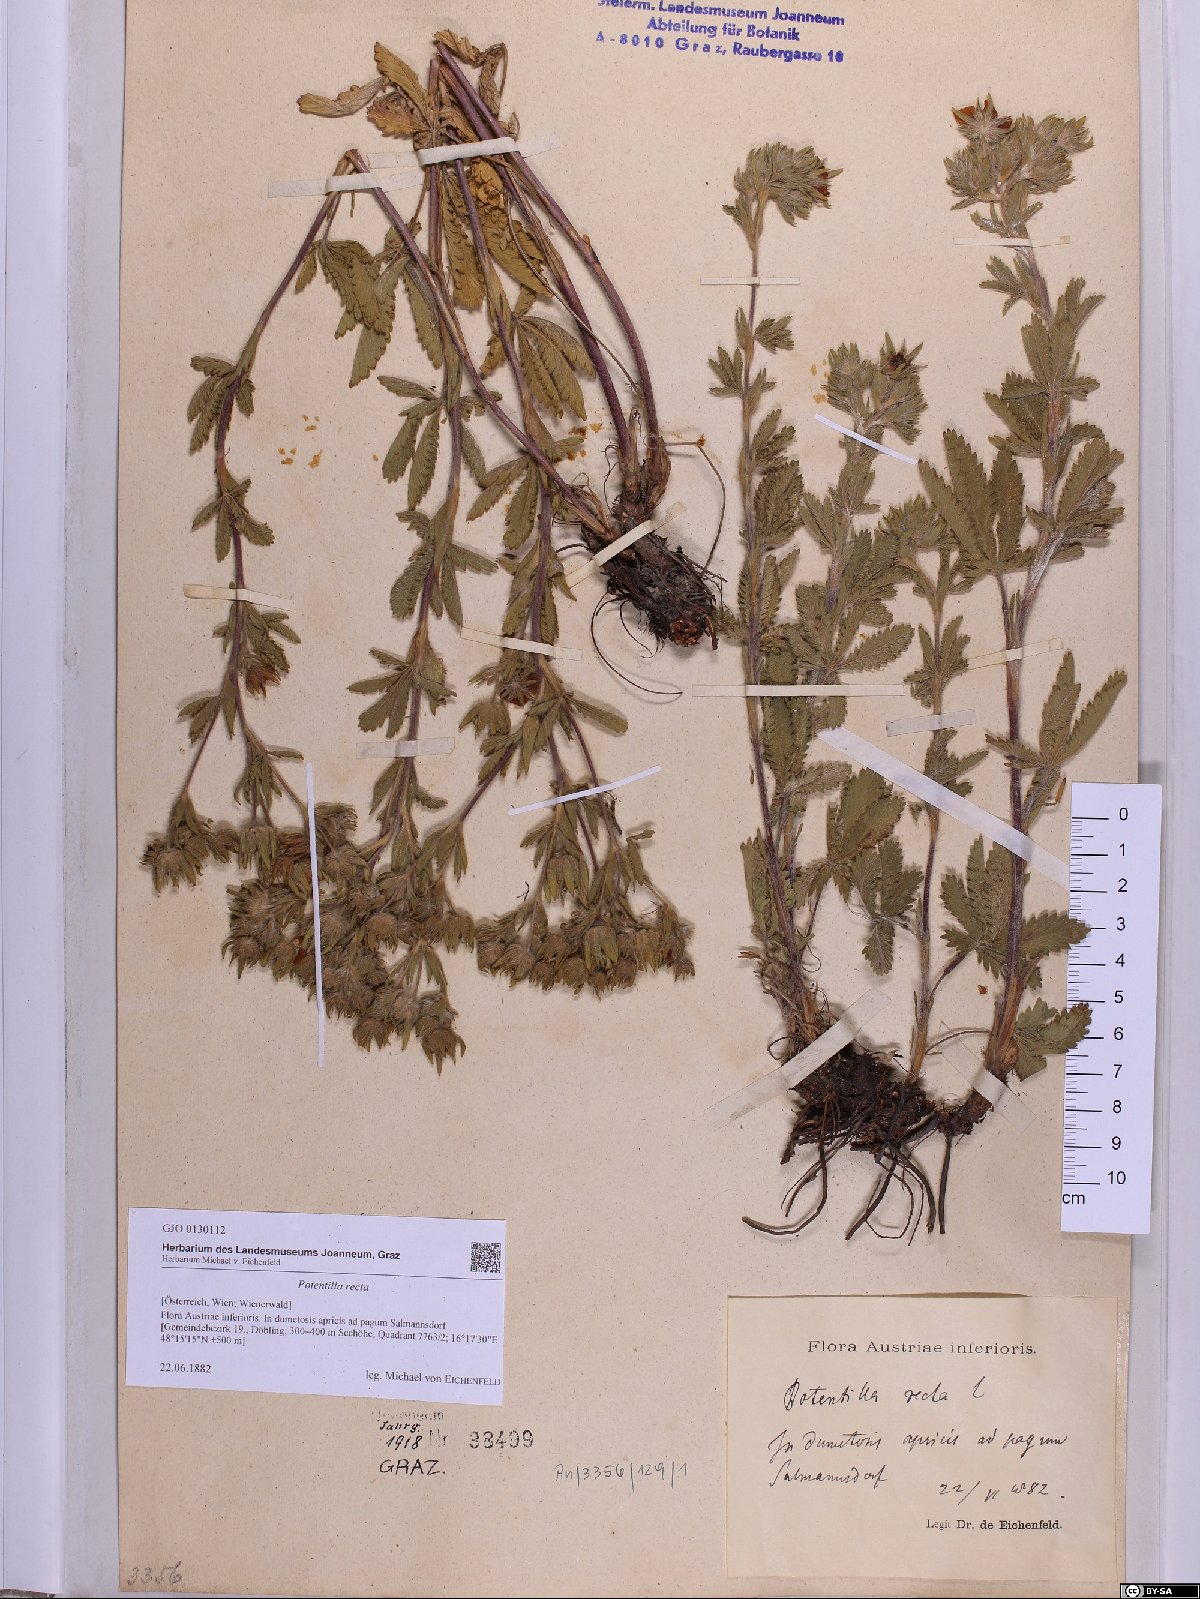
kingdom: Plantae
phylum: Tracheophyta
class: Magnoliopsida
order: Rosales
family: Rosaceae
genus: Potentilla
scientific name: Potentilla recta
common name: Sulphur cinquefoil
